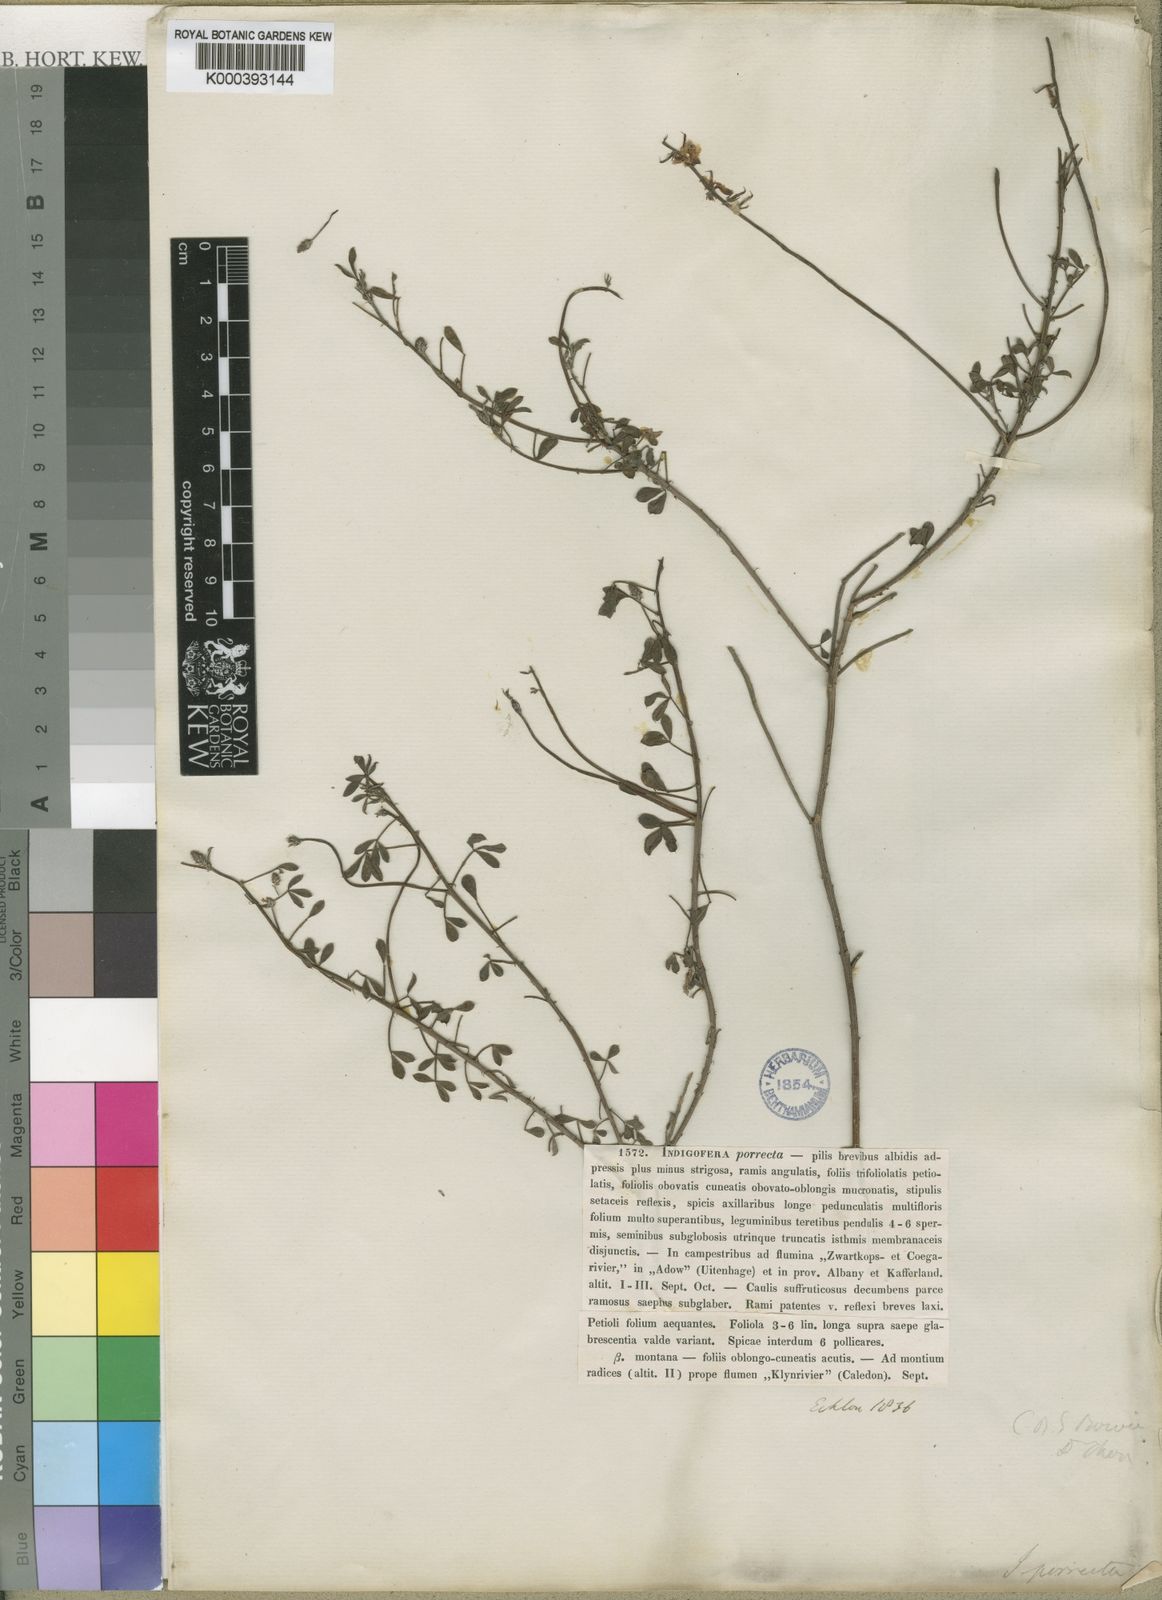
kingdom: Plantae
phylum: Tracheophyta
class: Magnoliopsida
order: Fabales
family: Fabaceae
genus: Indigofera
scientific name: Indigofera heterophylla
